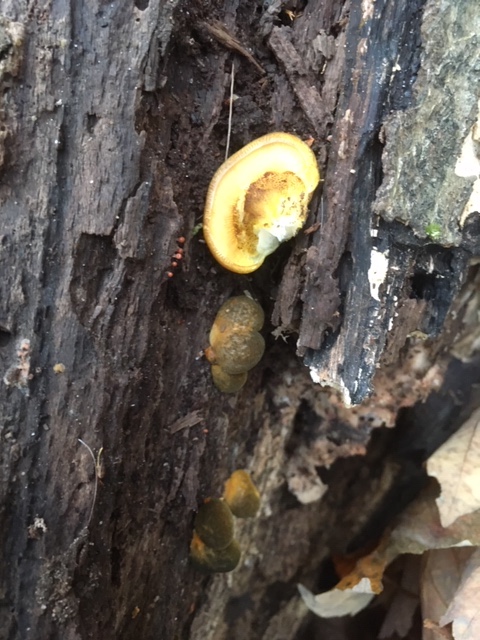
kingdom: Fungi
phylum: Basidiomycota
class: Agaricomycetes
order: Agaricales
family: Sarcomyxaceae
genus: Sarcomyxa
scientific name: Sarcomyxa serotina
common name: gummihat
